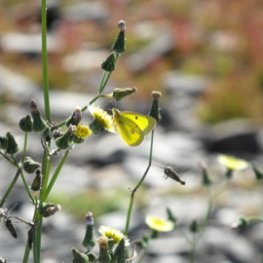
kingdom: Animalia
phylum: Arthropoda
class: Insecta
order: Lepidoptera
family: Pieridae
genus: Colias
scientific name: Colias philodice
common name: Clouded Sulphur
